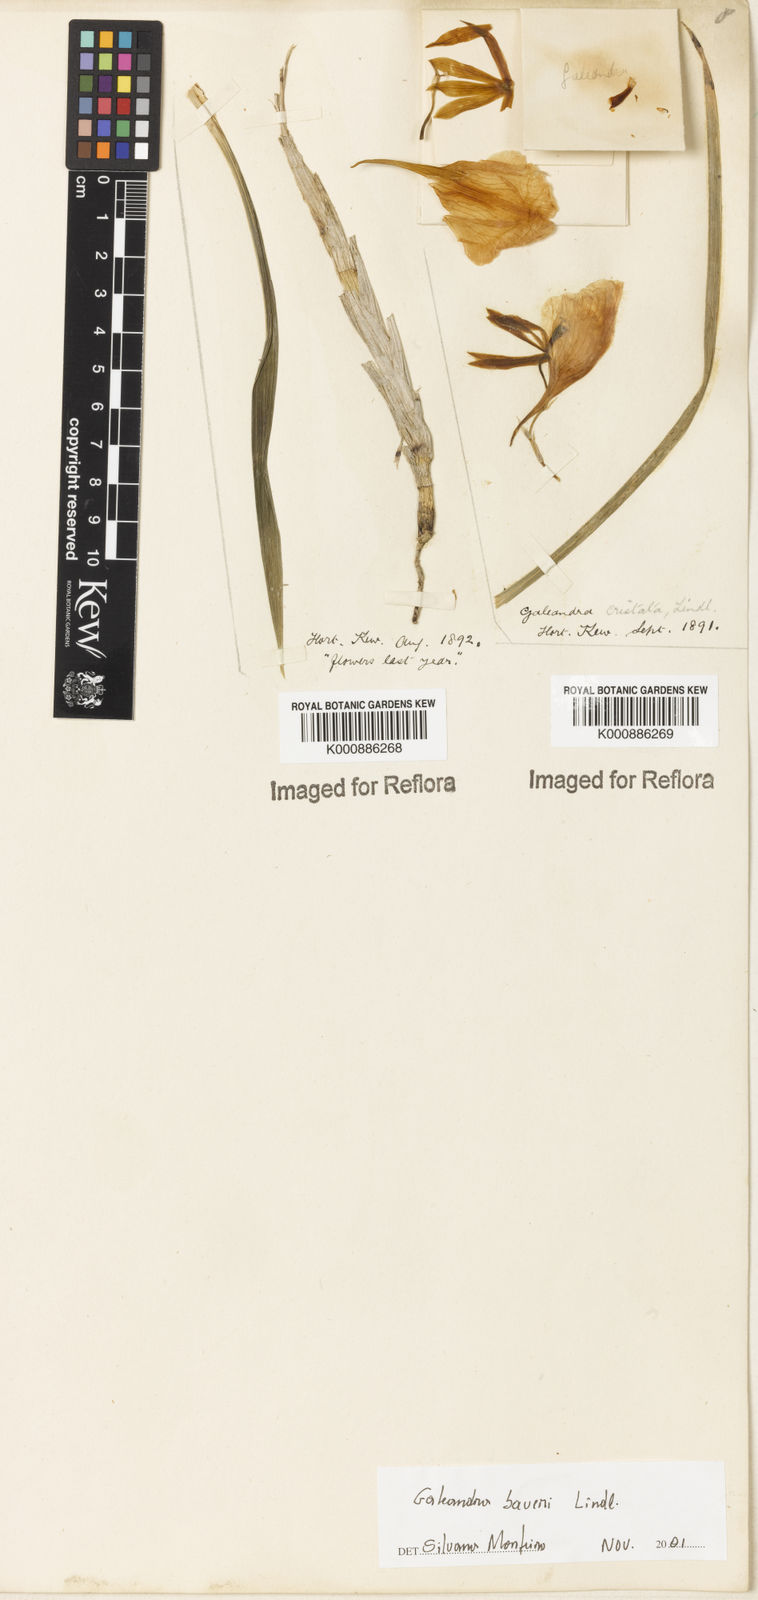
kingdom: Plantae
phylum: Tracheophyta
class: Liliopsida
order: Asparagales
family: Orchidaceae
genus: Galeandra
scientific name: Galeandra baueri
